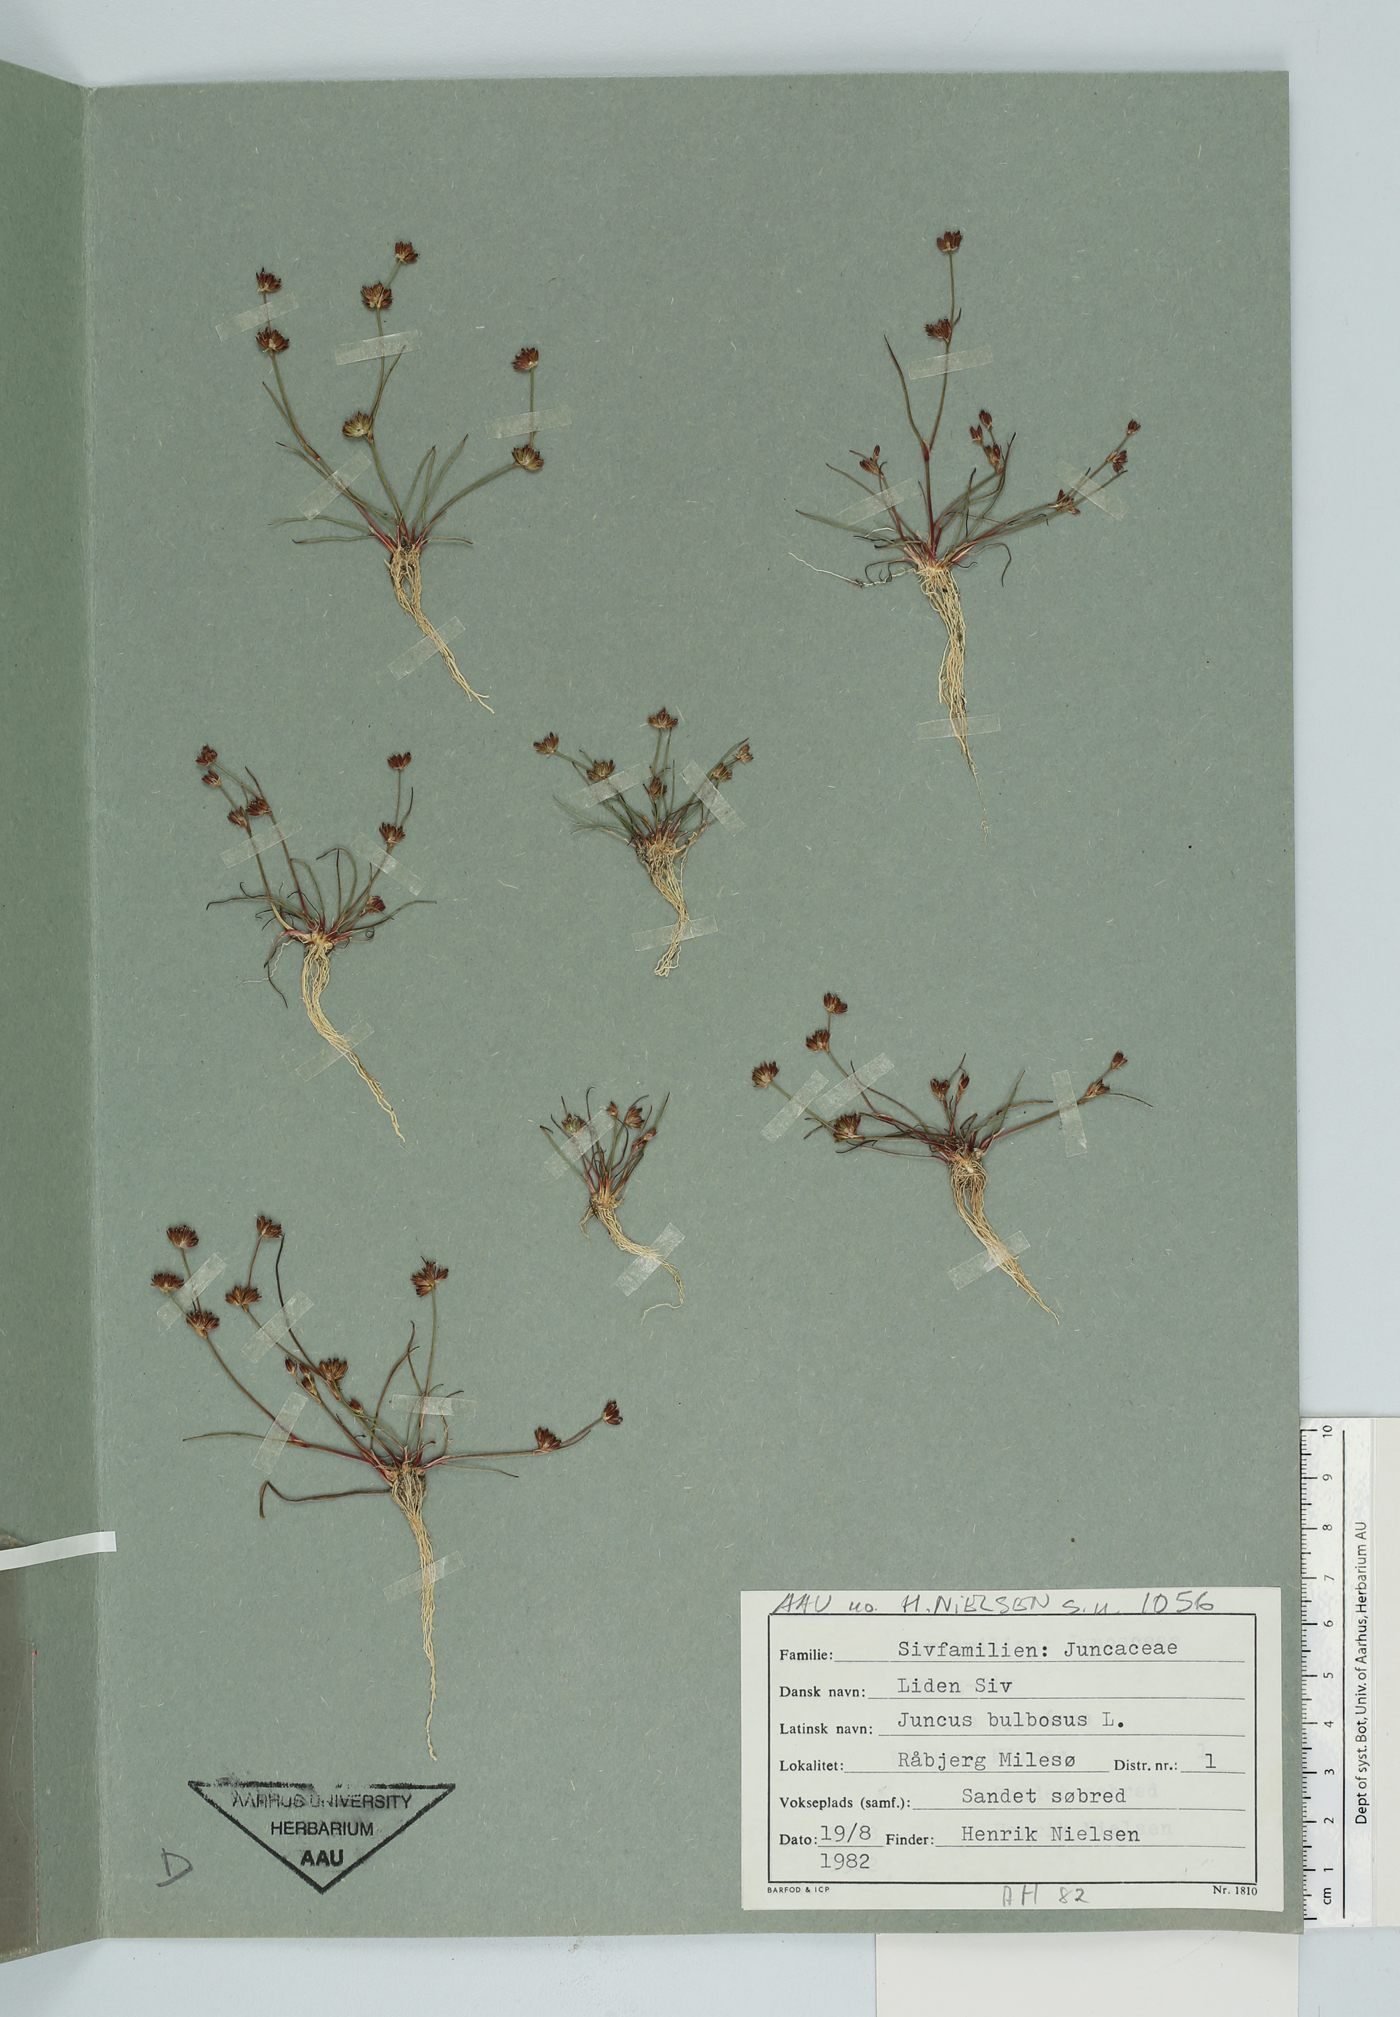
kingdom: Plantae
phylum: Tracheophyta
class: Liliopsida
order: Poales
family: Juncaceae
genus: Juncus
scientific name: Juncus bulbosus
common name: Bulbous rush
